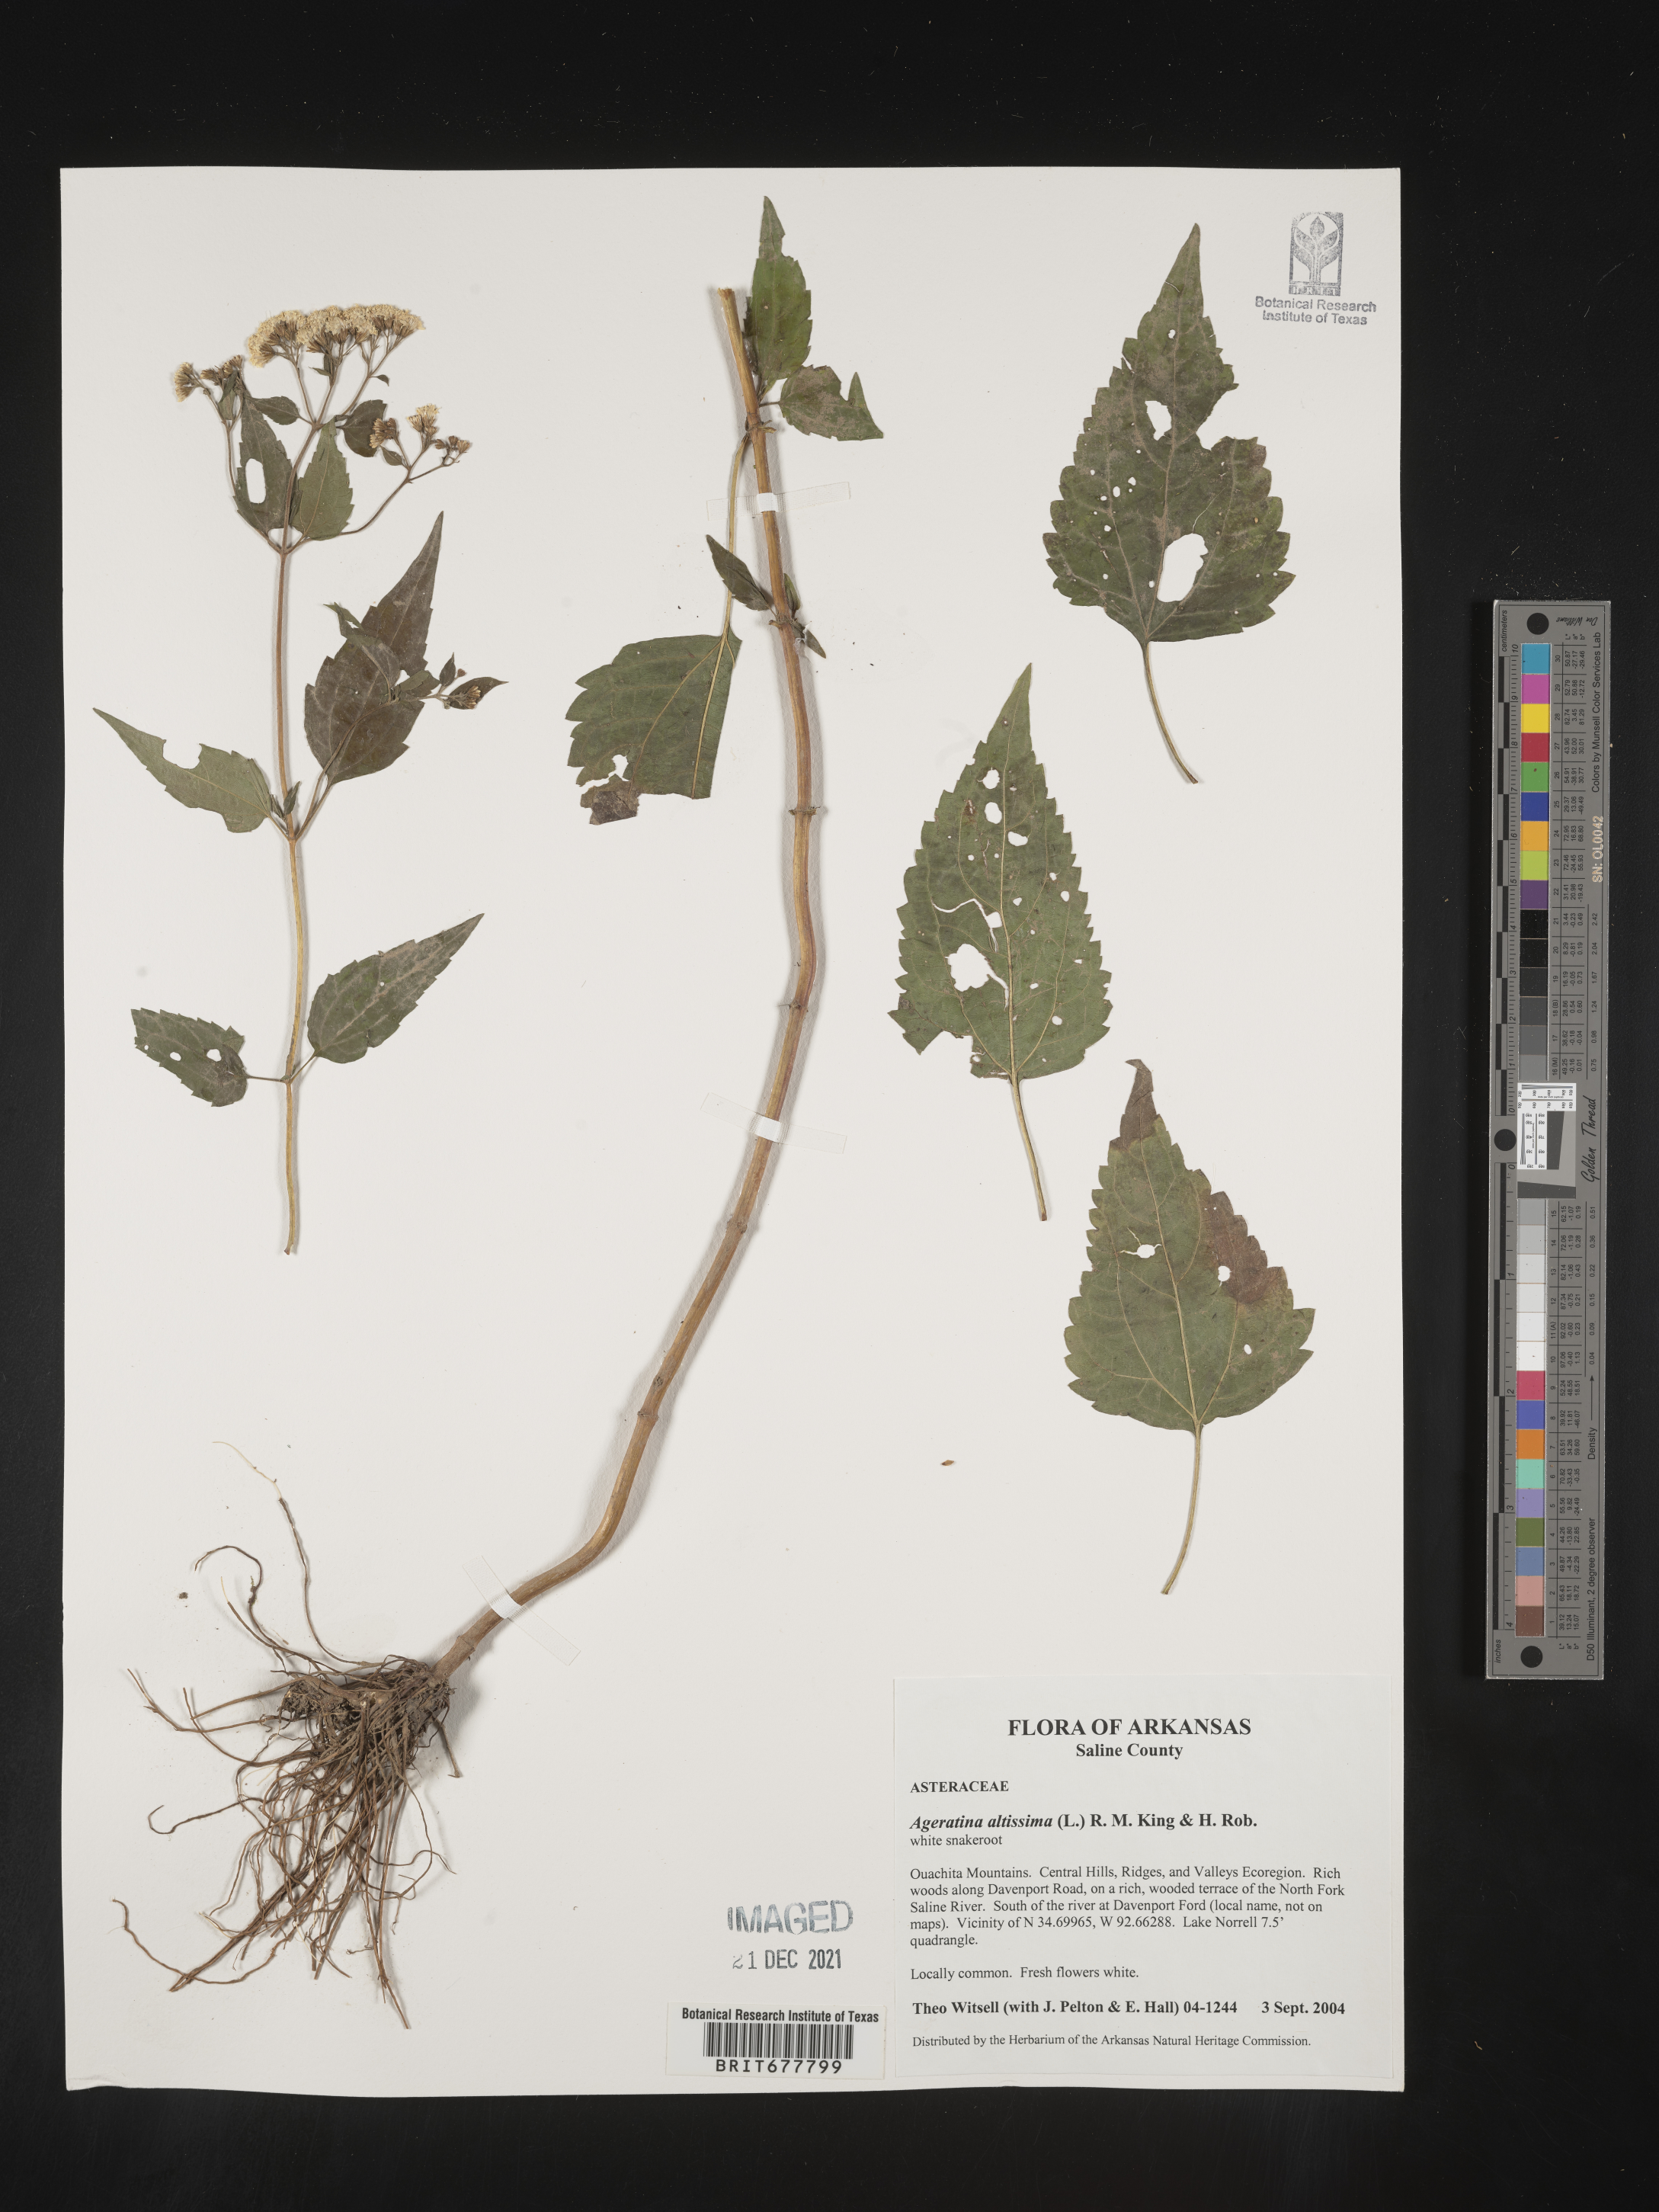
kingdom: Plantae
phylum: Tracheophyta
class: Magnoliopsida
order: Asterales
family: Asteraceae
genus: Ageratina
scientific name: Ageratina altissima
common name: White snakeroot
